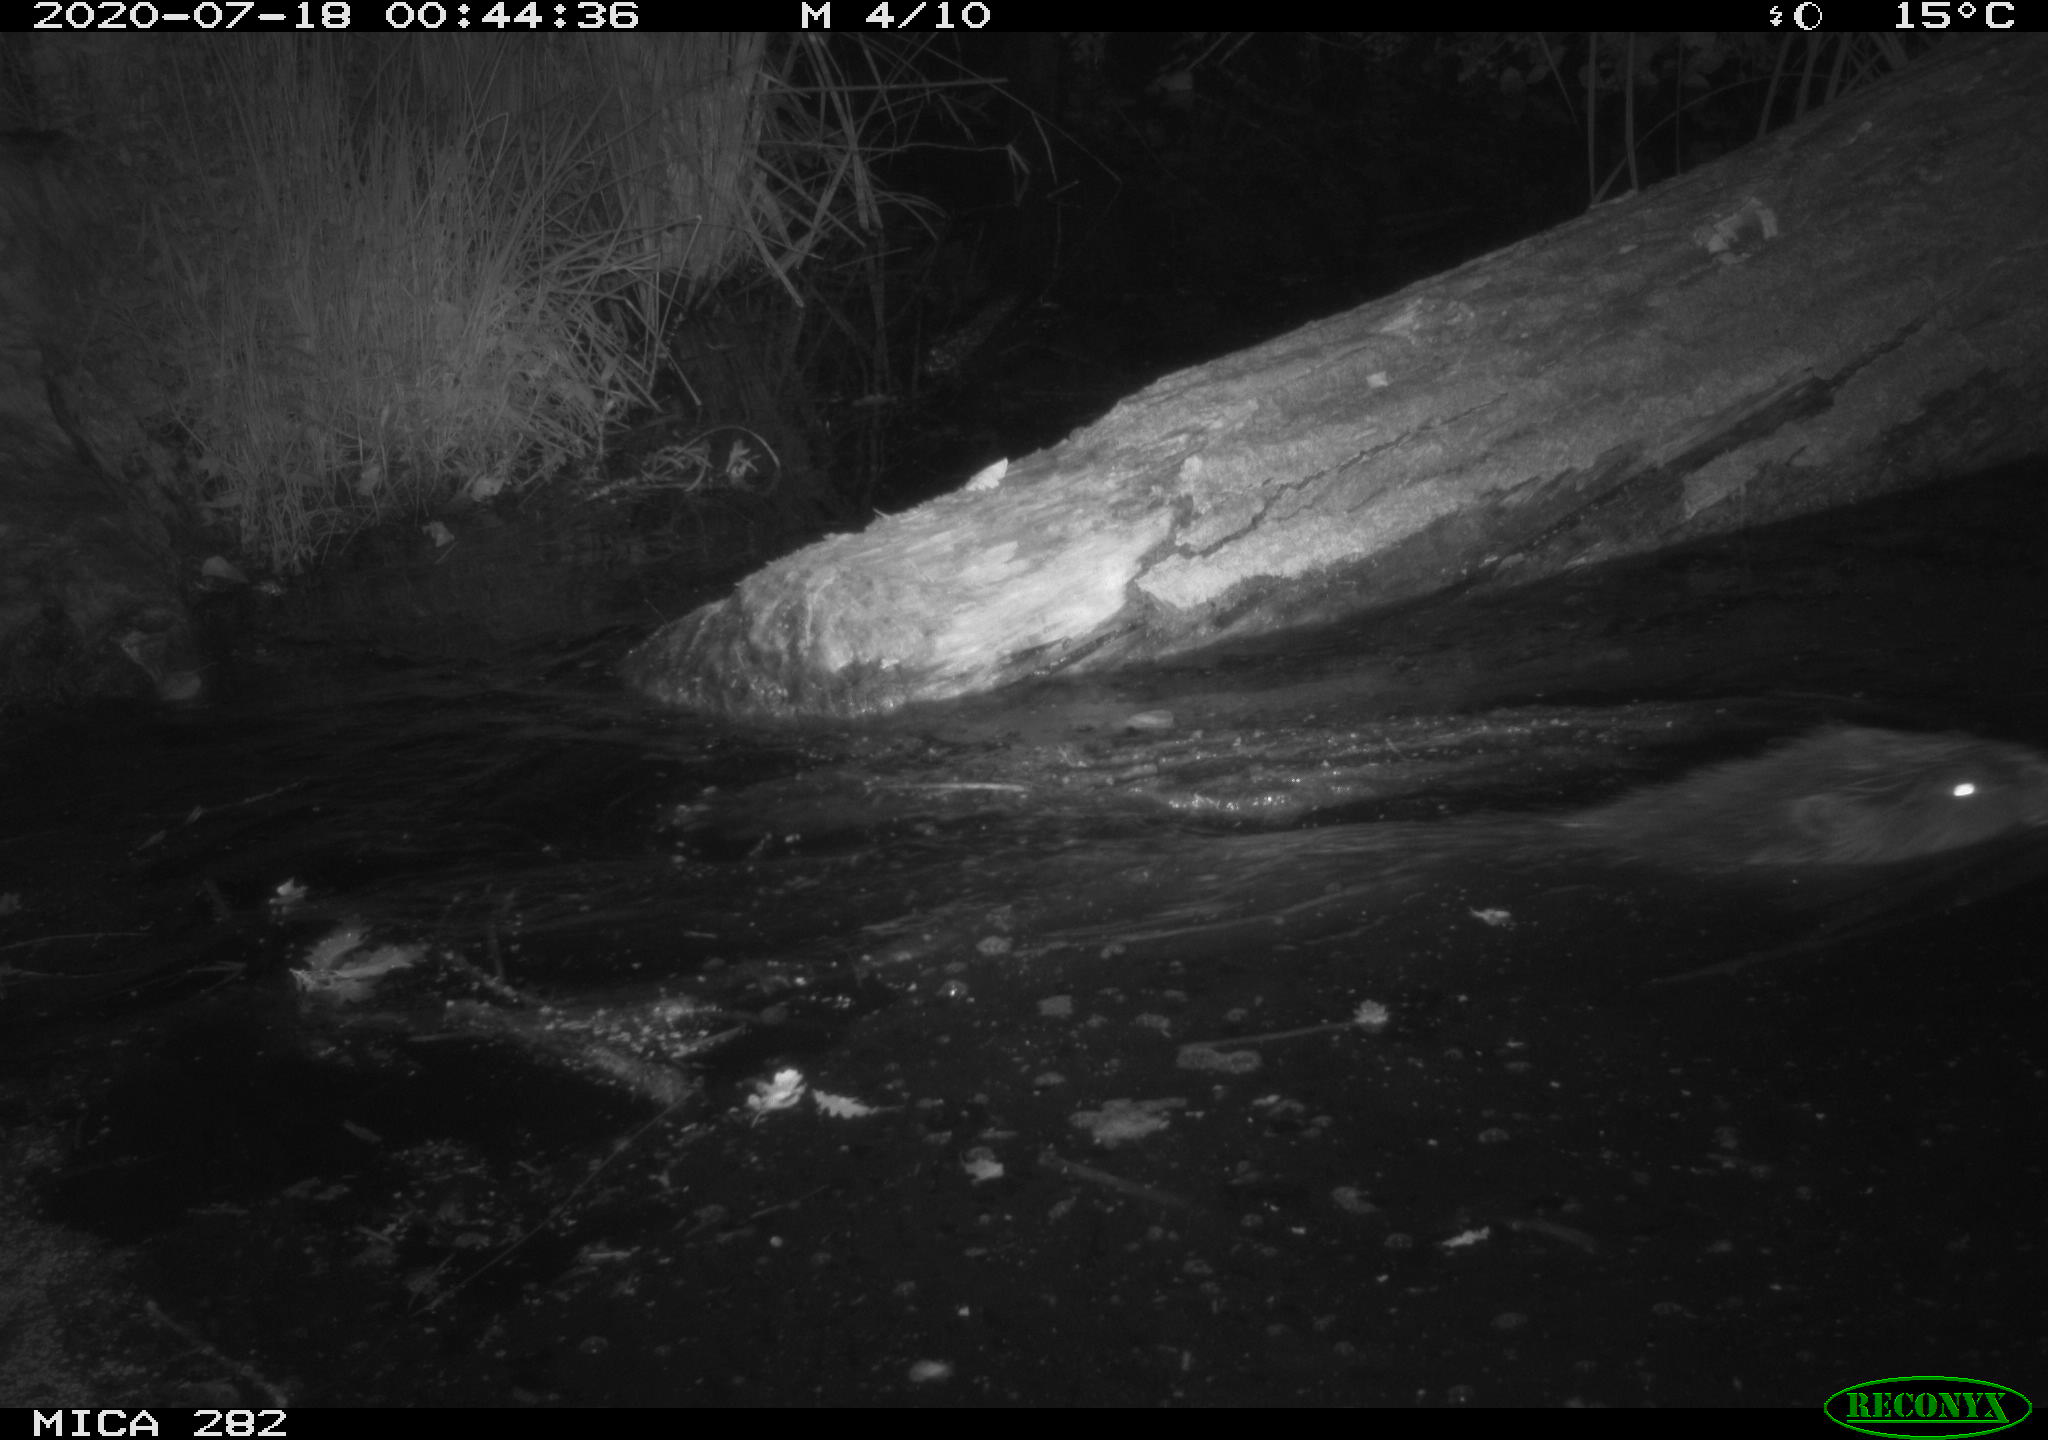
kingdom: Animalia
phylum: Chordata
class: Mammalia
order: Rodentia
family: Castoridae
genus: Castor
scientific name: Castor fiber
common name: Eurasian beaver
